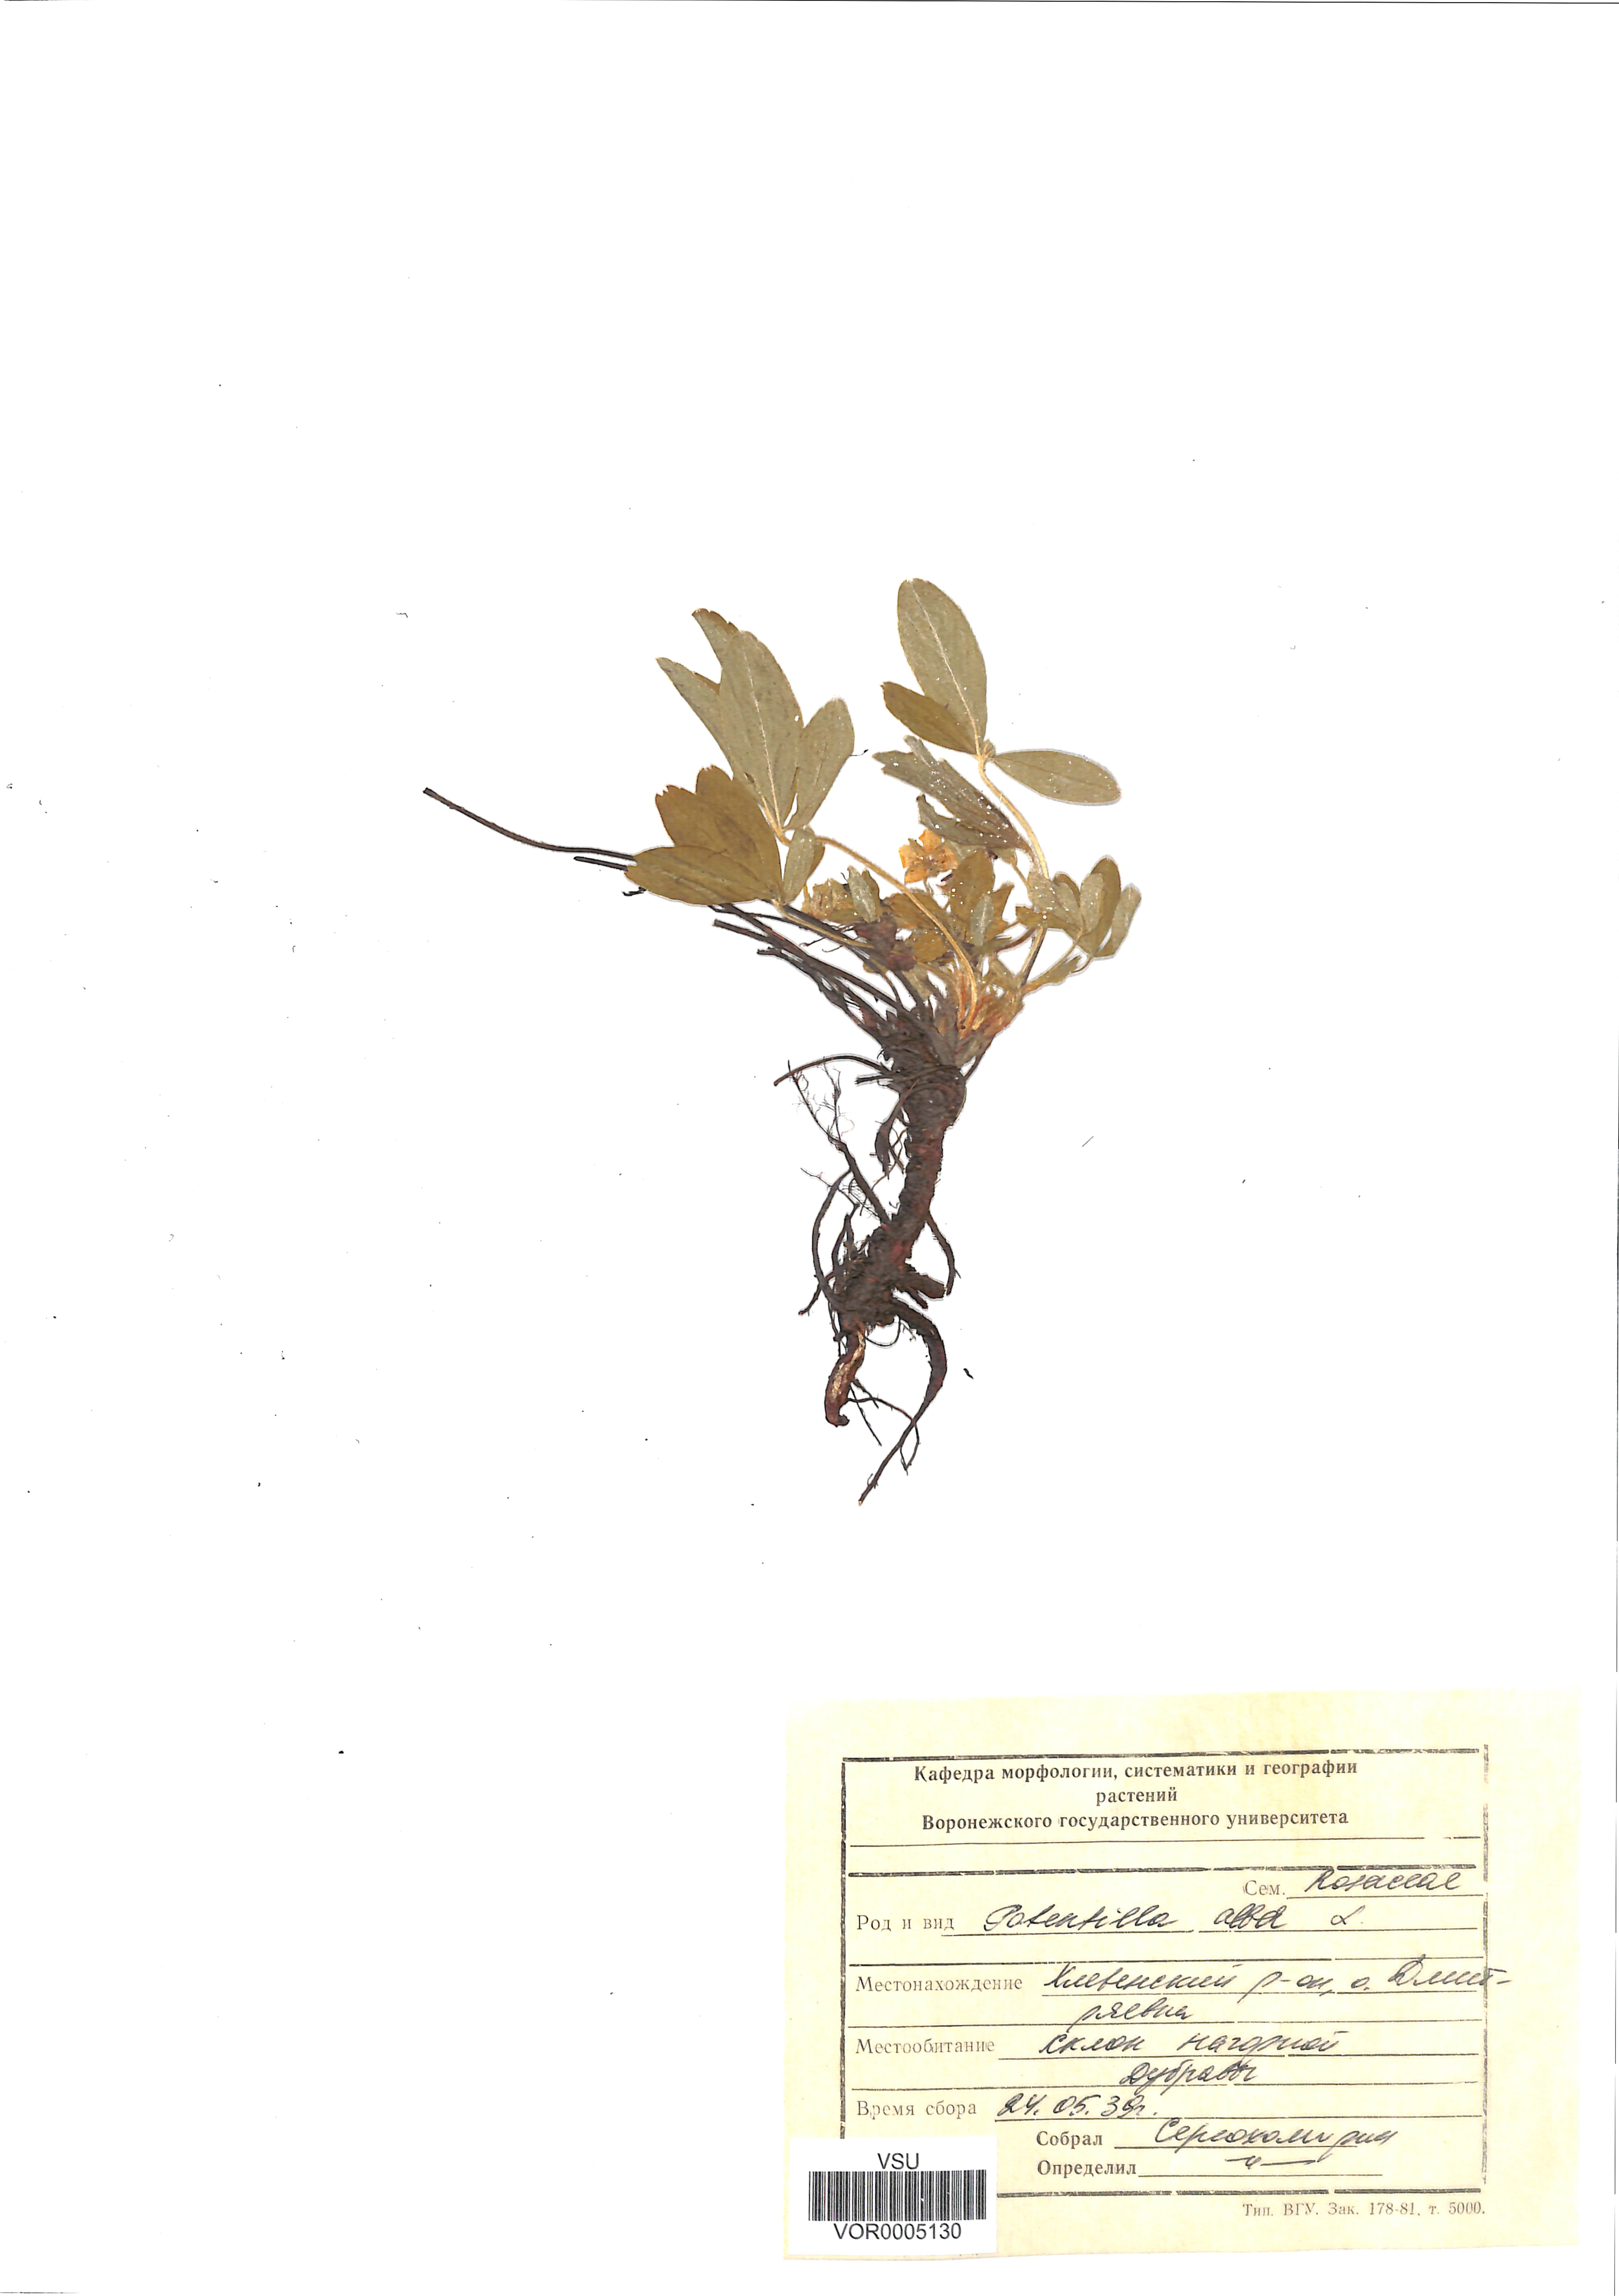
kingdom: Plantae
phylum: Tracheophyta
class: Magnoliopsida
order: Rosales
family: Rosaceae
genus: Potentilla
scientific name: Potentilla alba
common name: White cinquefoil
